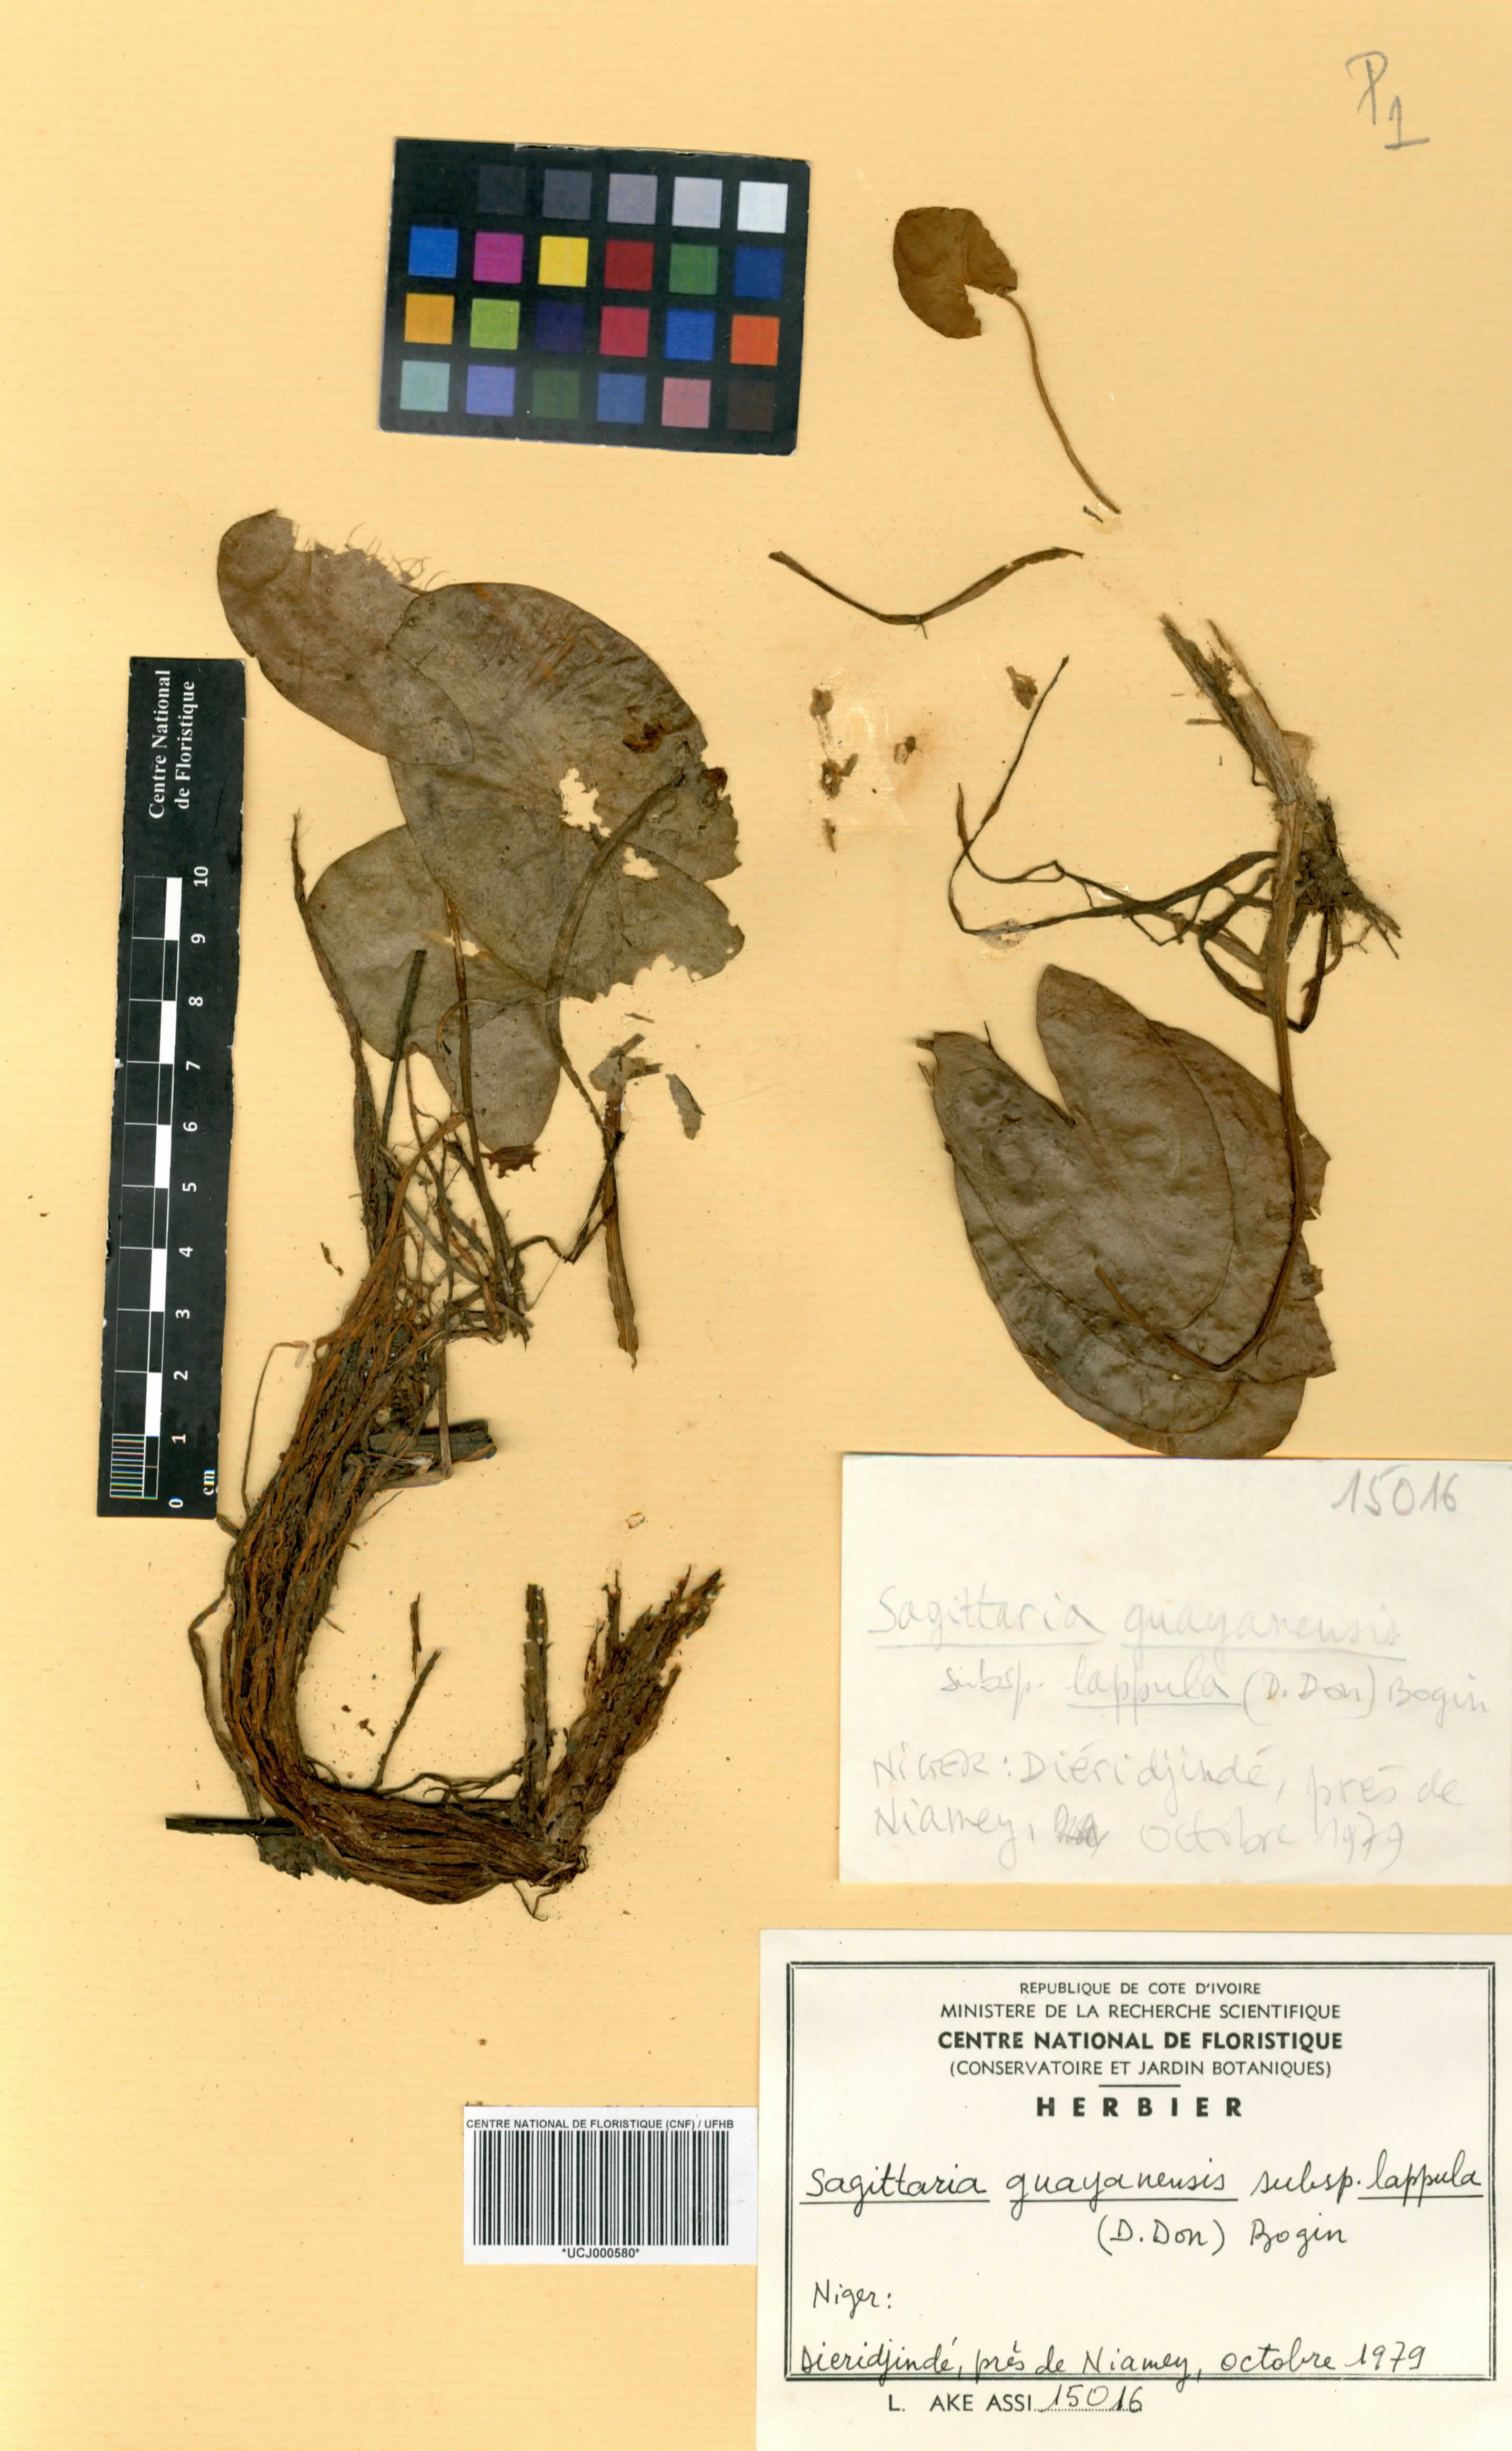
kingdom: Plantae
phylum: Tracheophyta
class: Liliopsida
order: Alismatales
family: Alismataceae
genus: Sagittaria
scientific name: Sagittaria guayanensis
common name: Guyanese arrowhead
